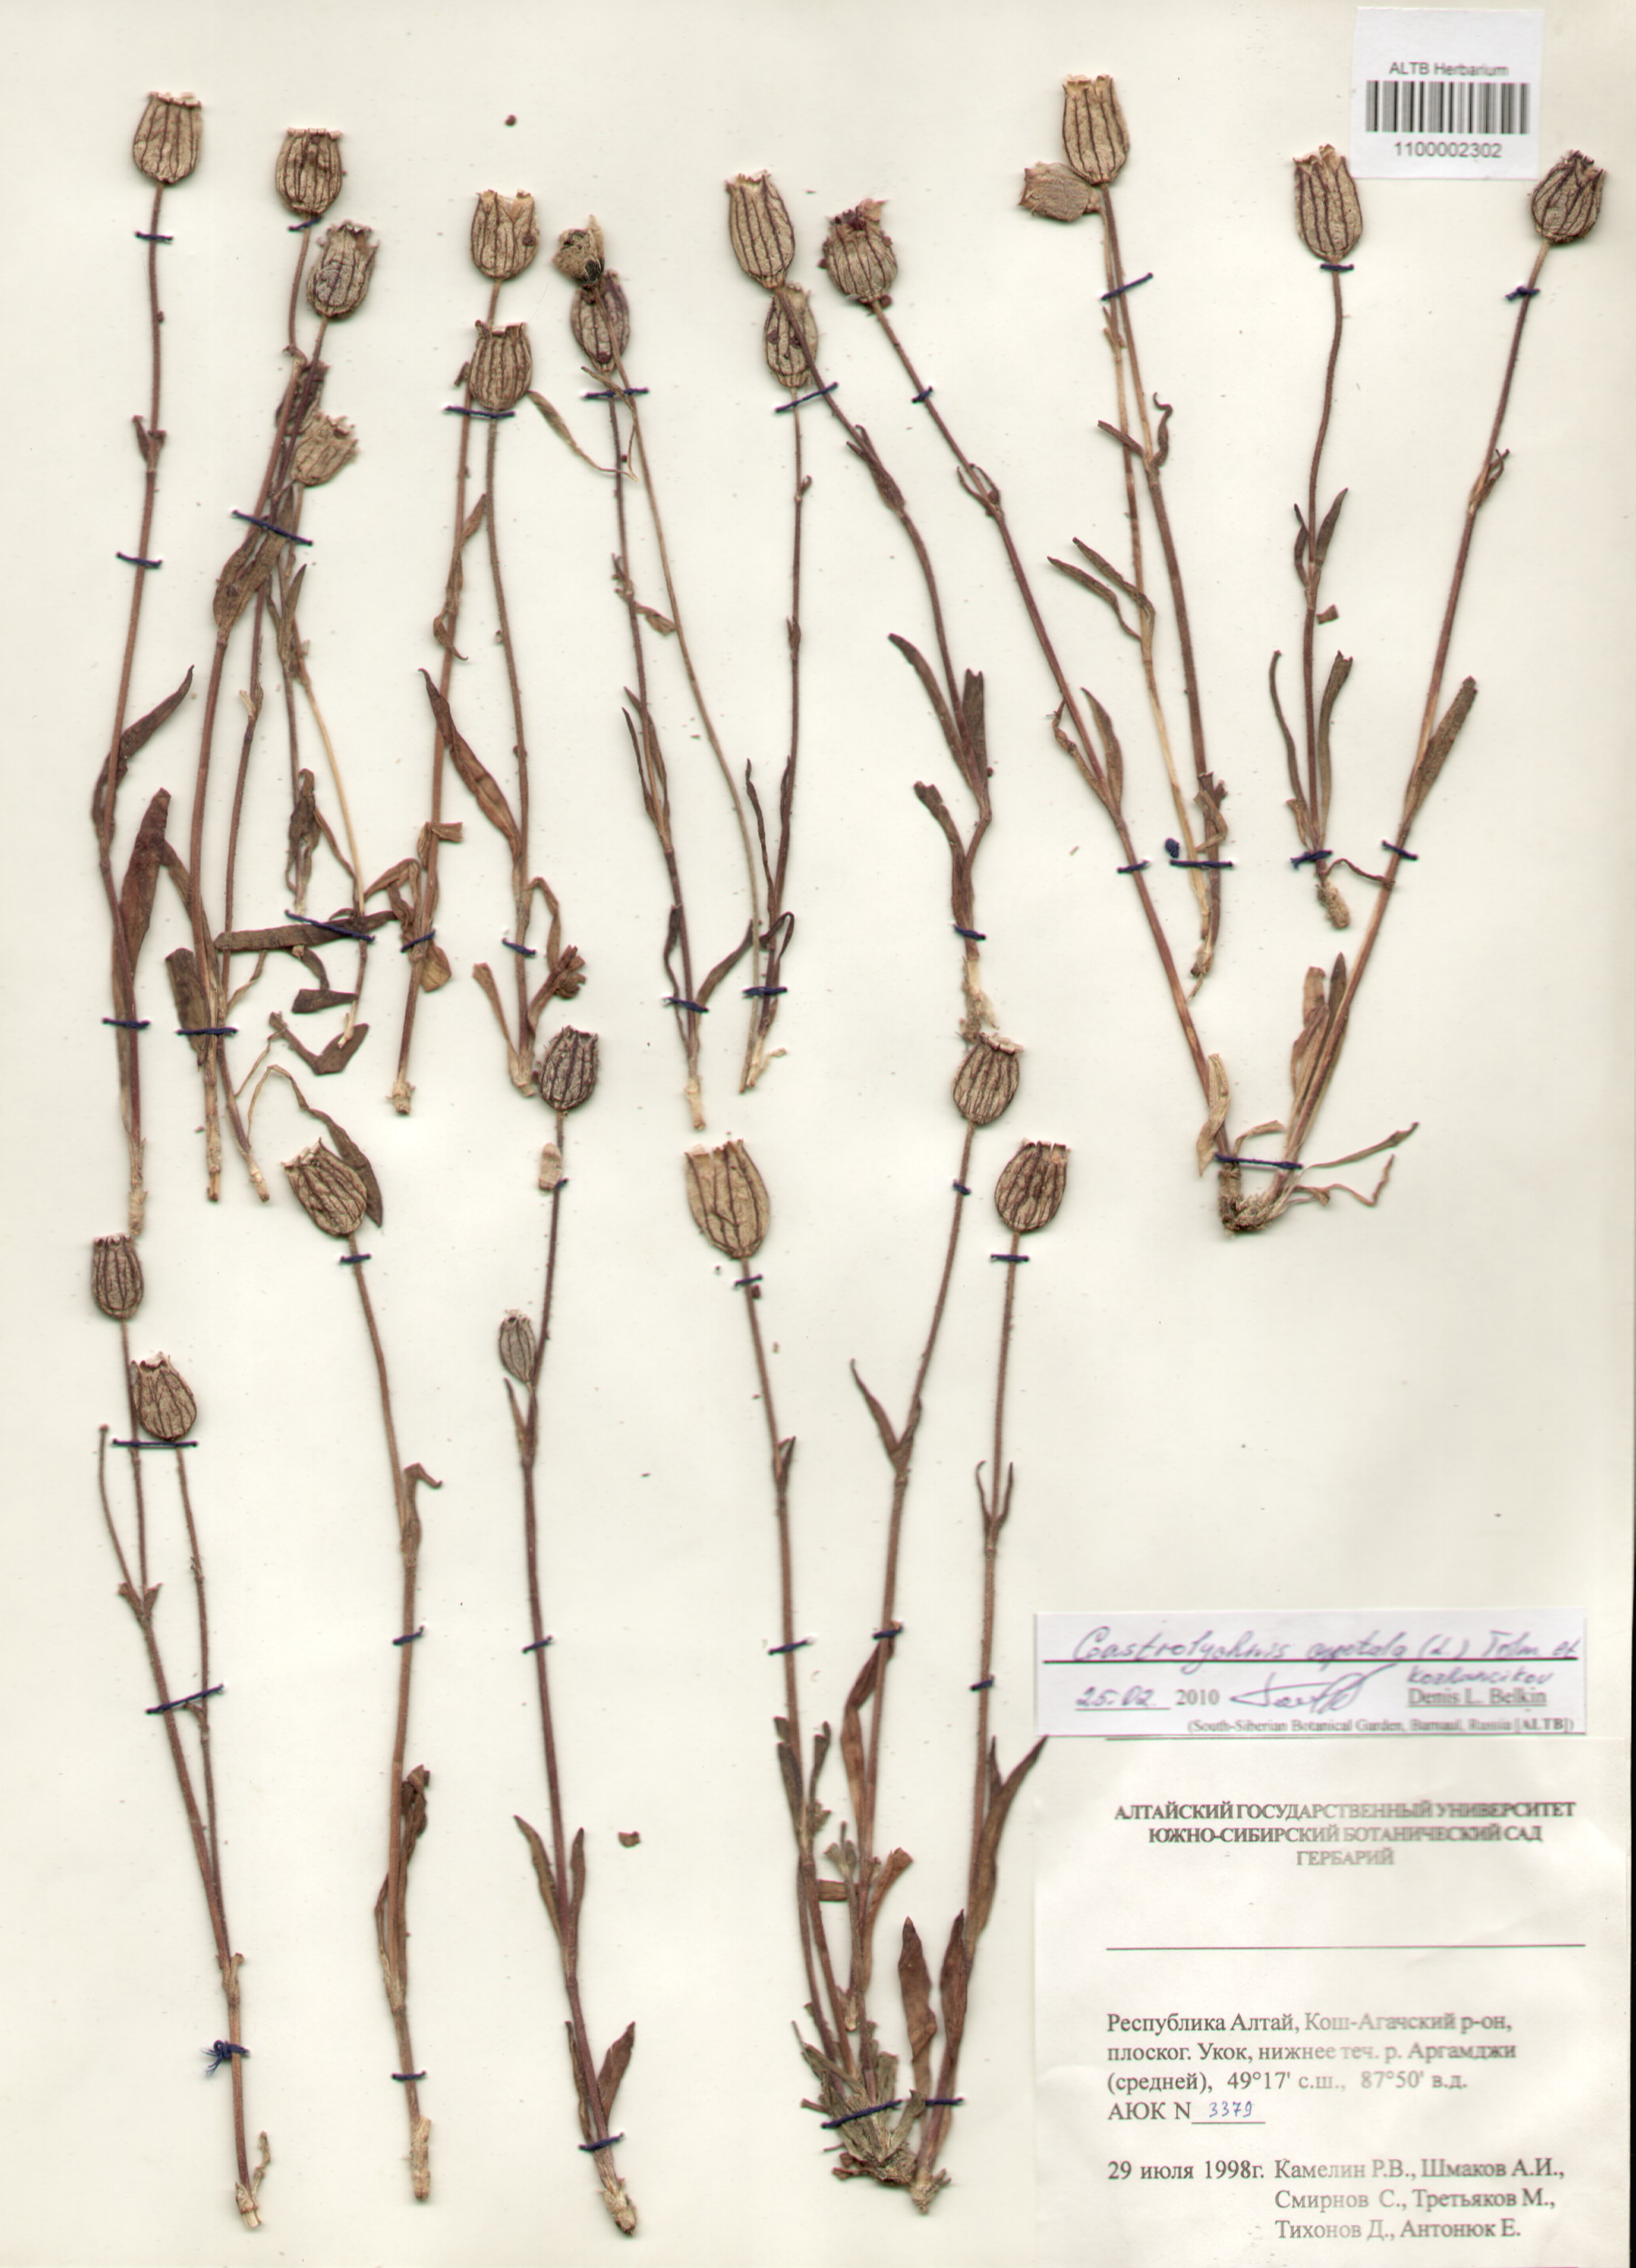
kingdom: Plantae
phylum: Tracheophyta
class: Magnoliopsida
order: Caryophyllales
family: Caryophyllaceae
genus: Silene
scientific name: Silene wahlbergella
